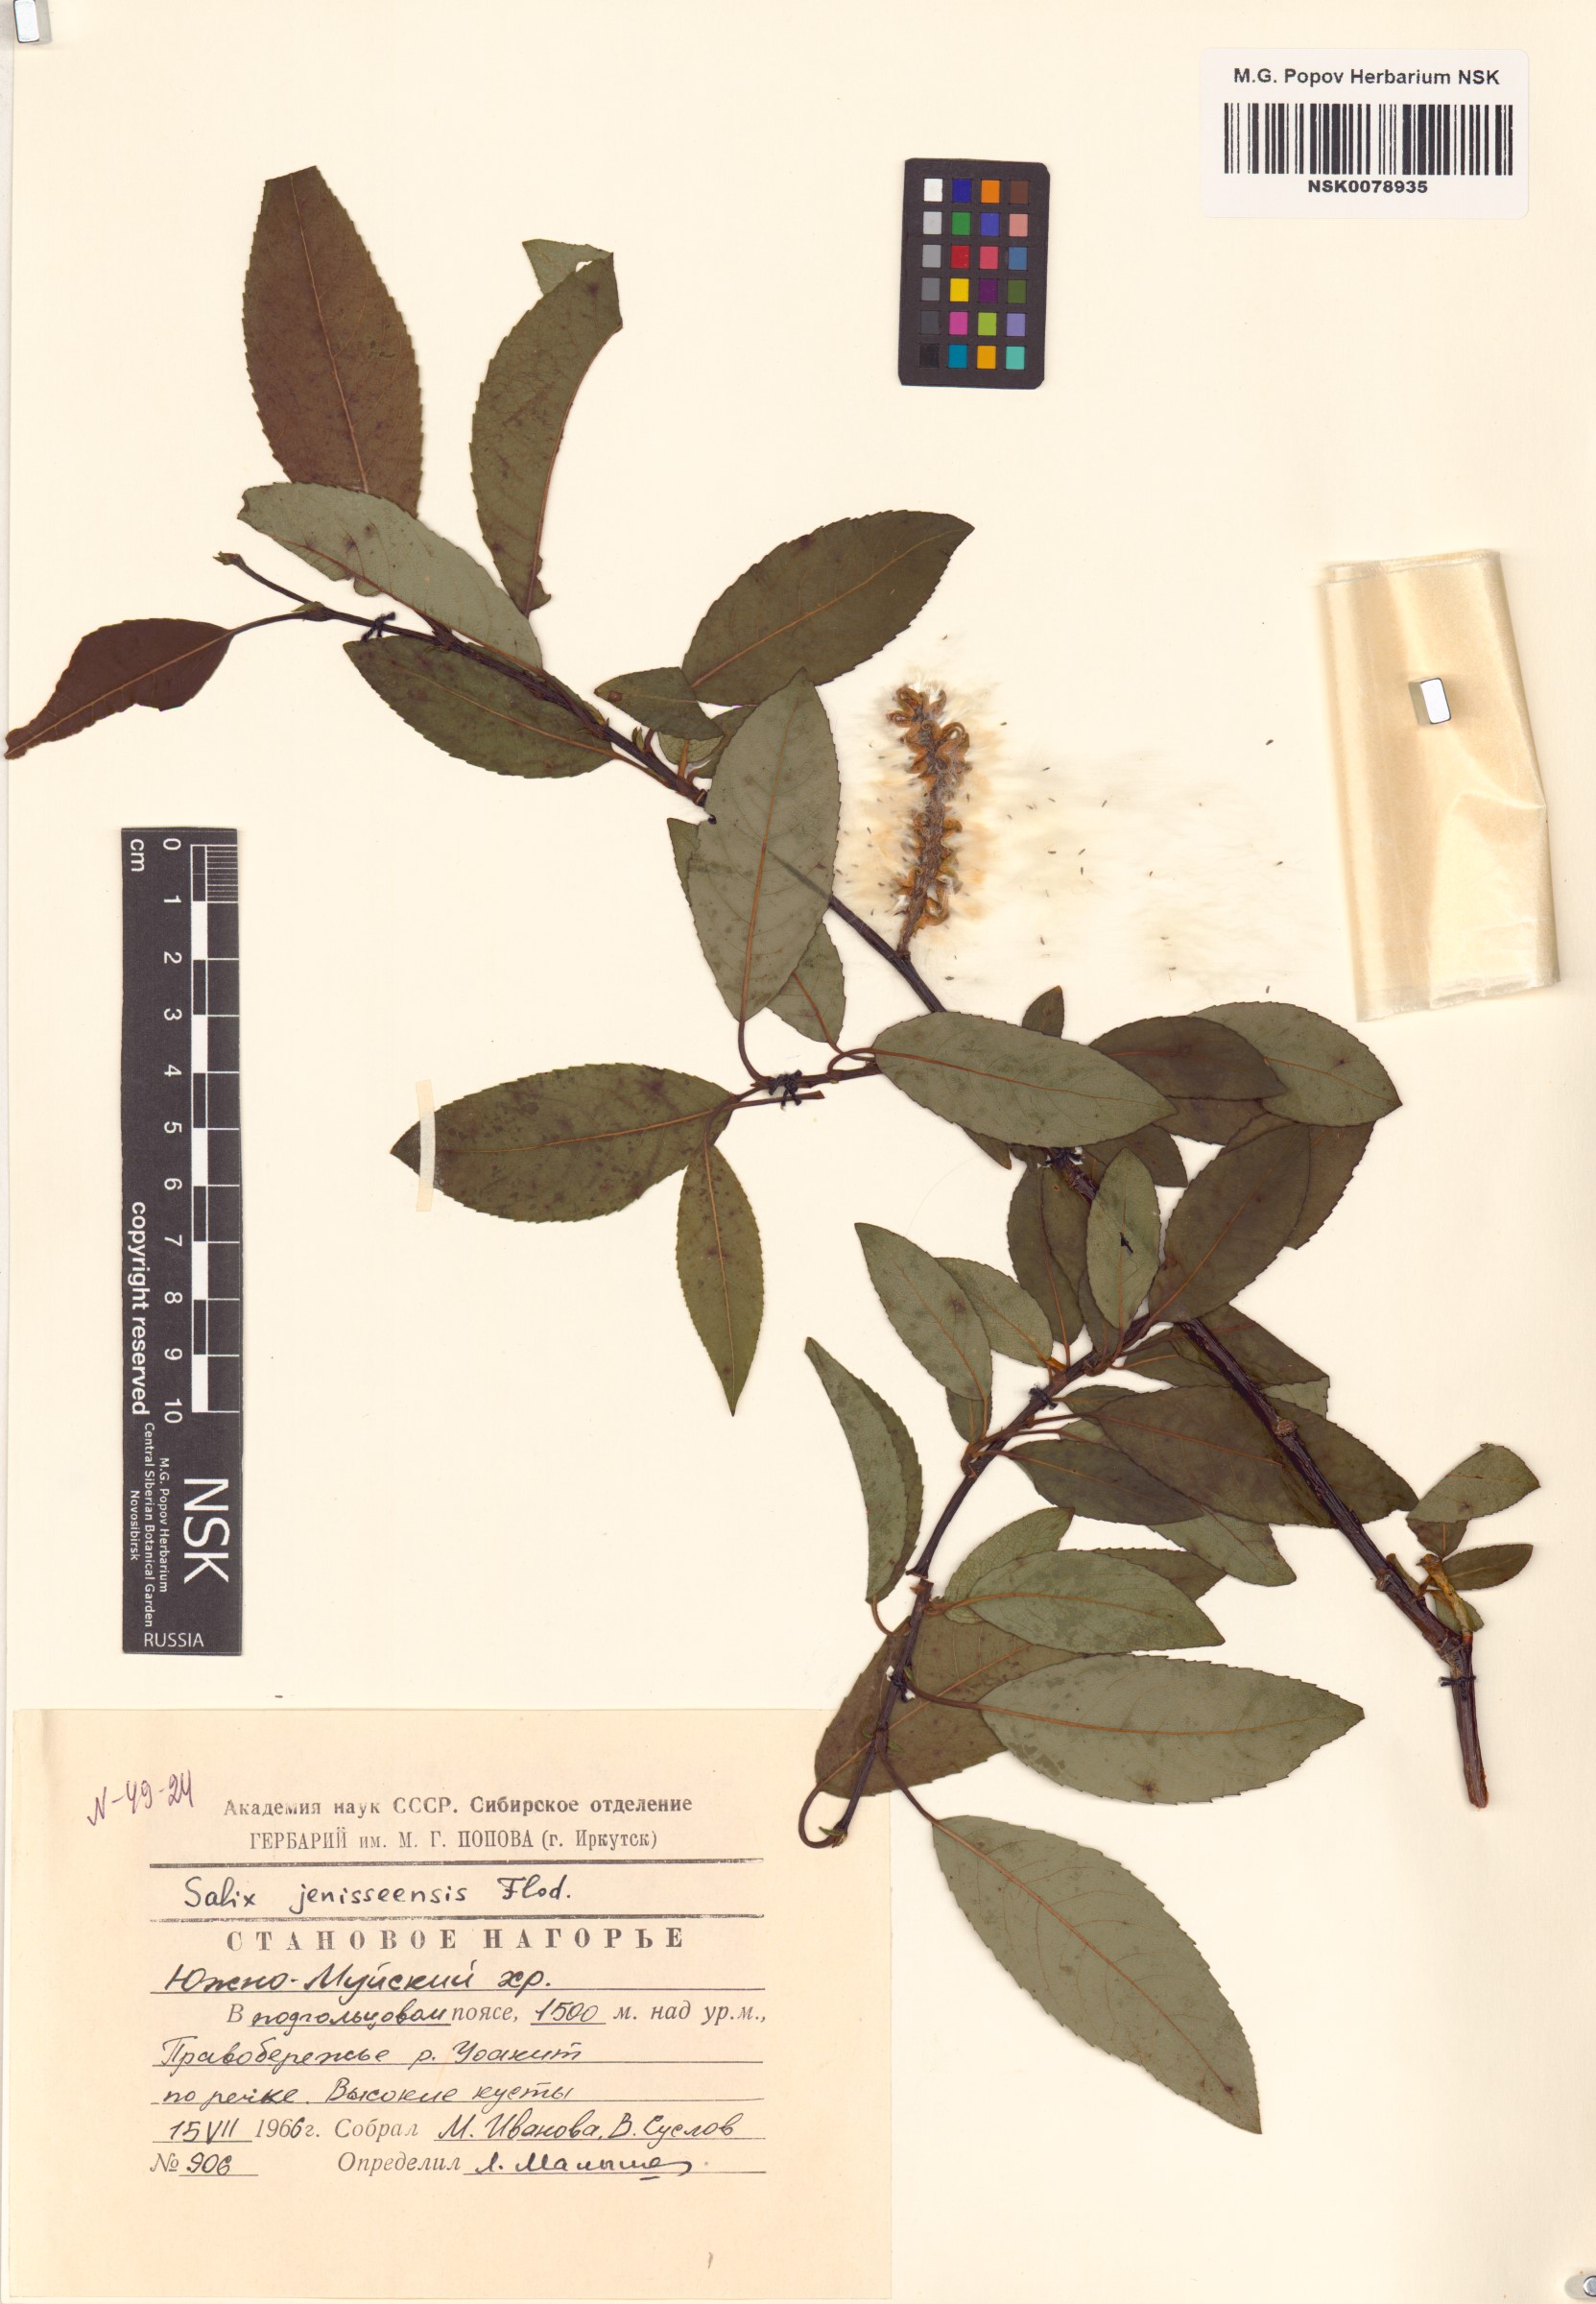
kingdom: Plantae
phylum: Tracheophyta
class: Magnoliopsida
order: Malpighiales
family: Salicaceae
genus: Salix
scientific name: Salix jenisseensis
